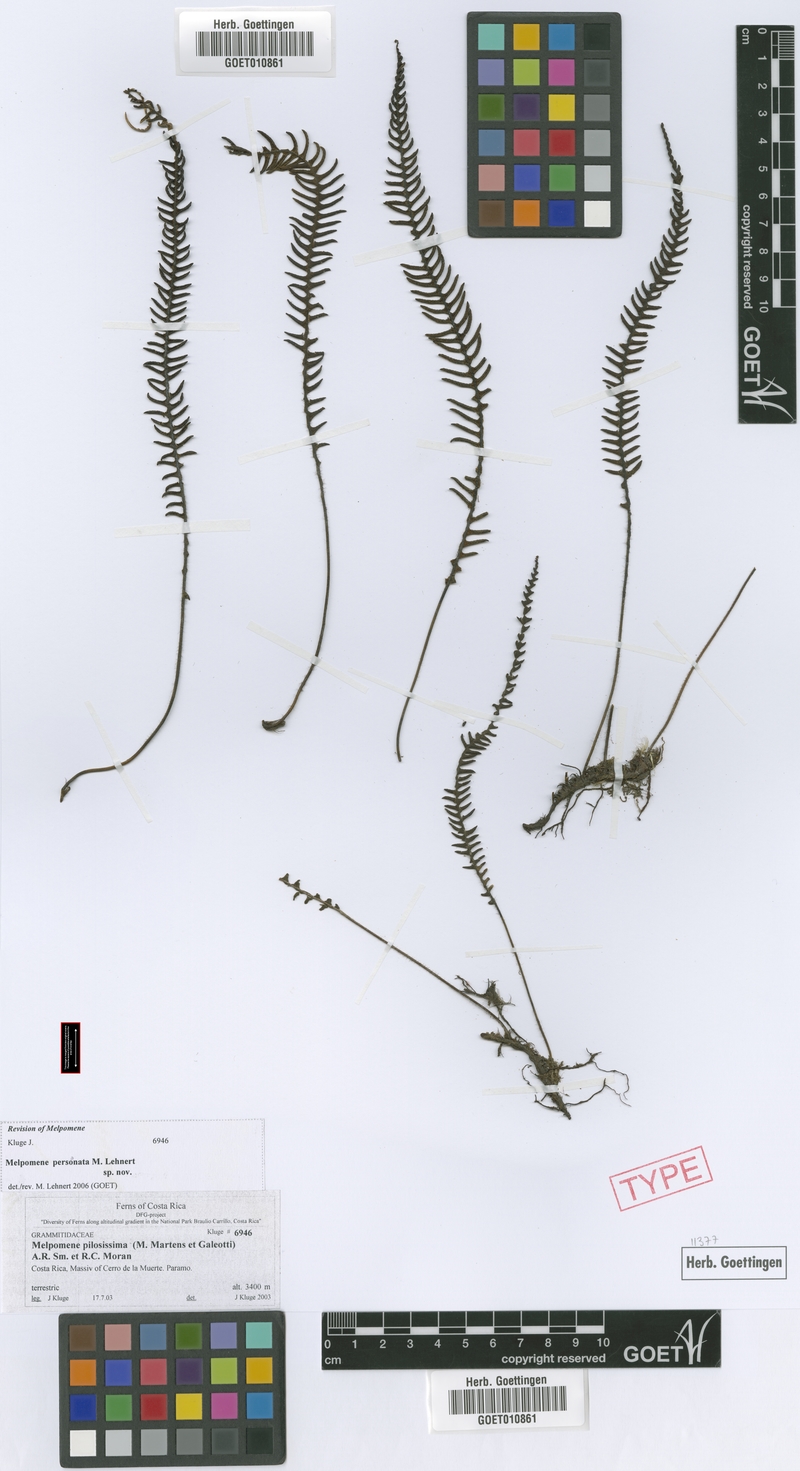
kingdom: Plantae
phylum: Tracheophyta
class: Polypodiopsida
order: Polypodiales
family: Polypodiaceae
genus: Melpomene
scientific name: Melpomene personata
